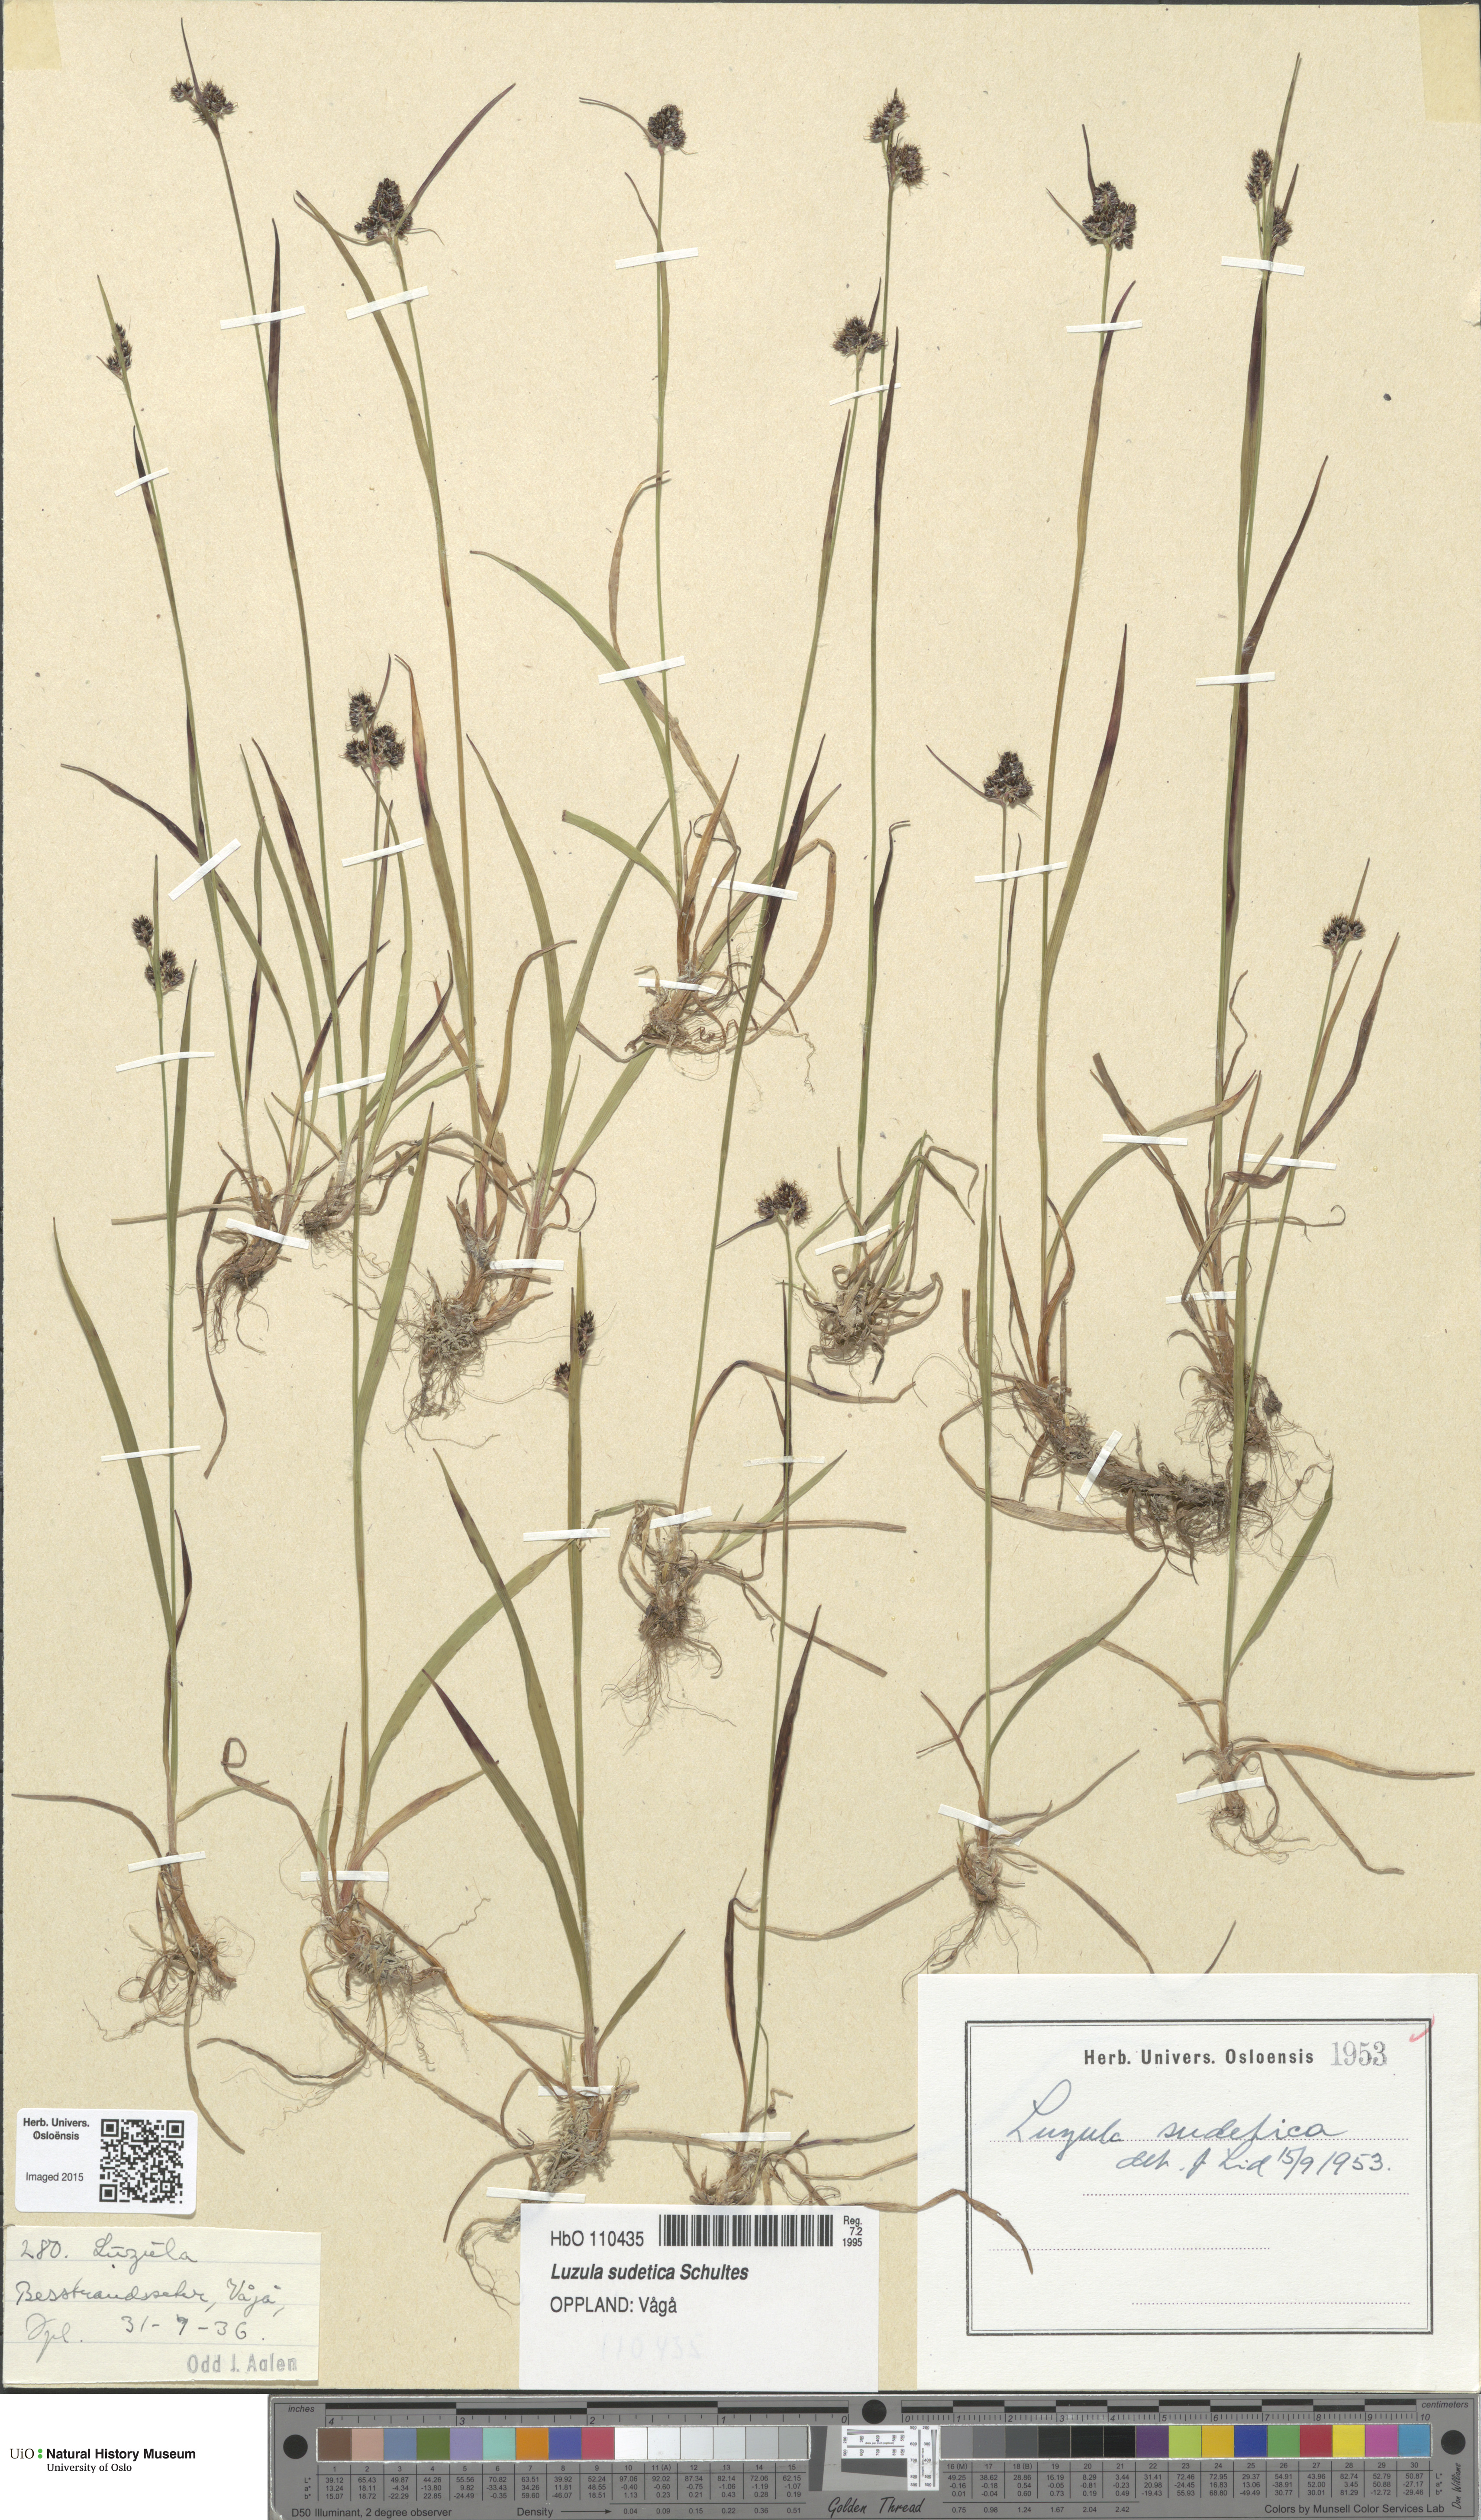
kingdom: Plantae
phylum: Tracheophyta
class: Liliopsida
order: Poales
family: Juncaceae
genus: Luzula
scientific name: Luzula sudetica
